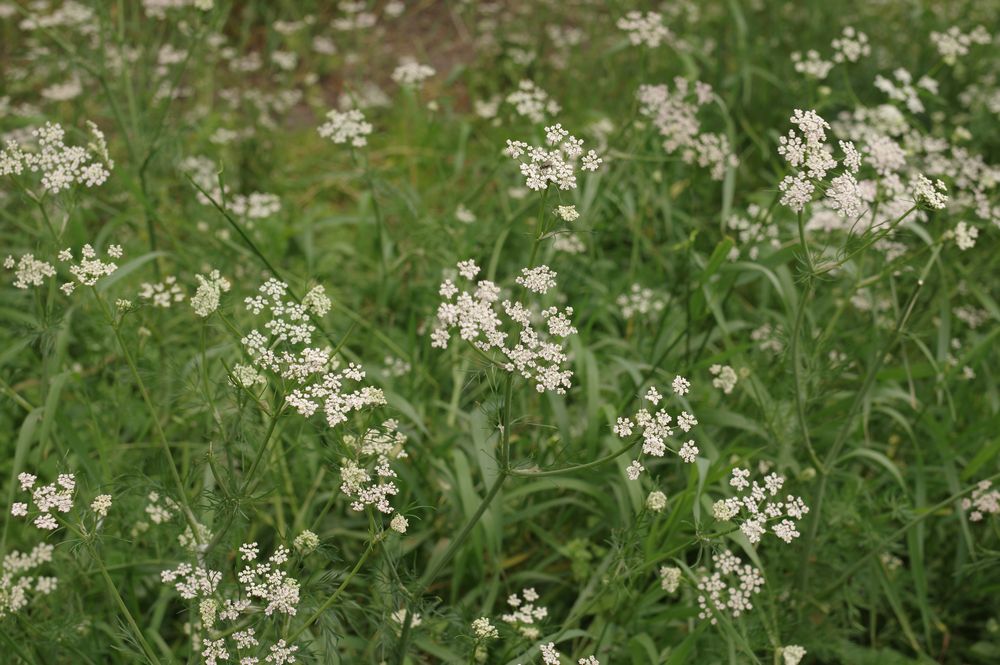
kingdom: Plantae
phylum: Tracheophyta
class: Magnoliopsida
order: Apiales
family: Apiaceae
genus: Carum
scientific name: Carum carvi
